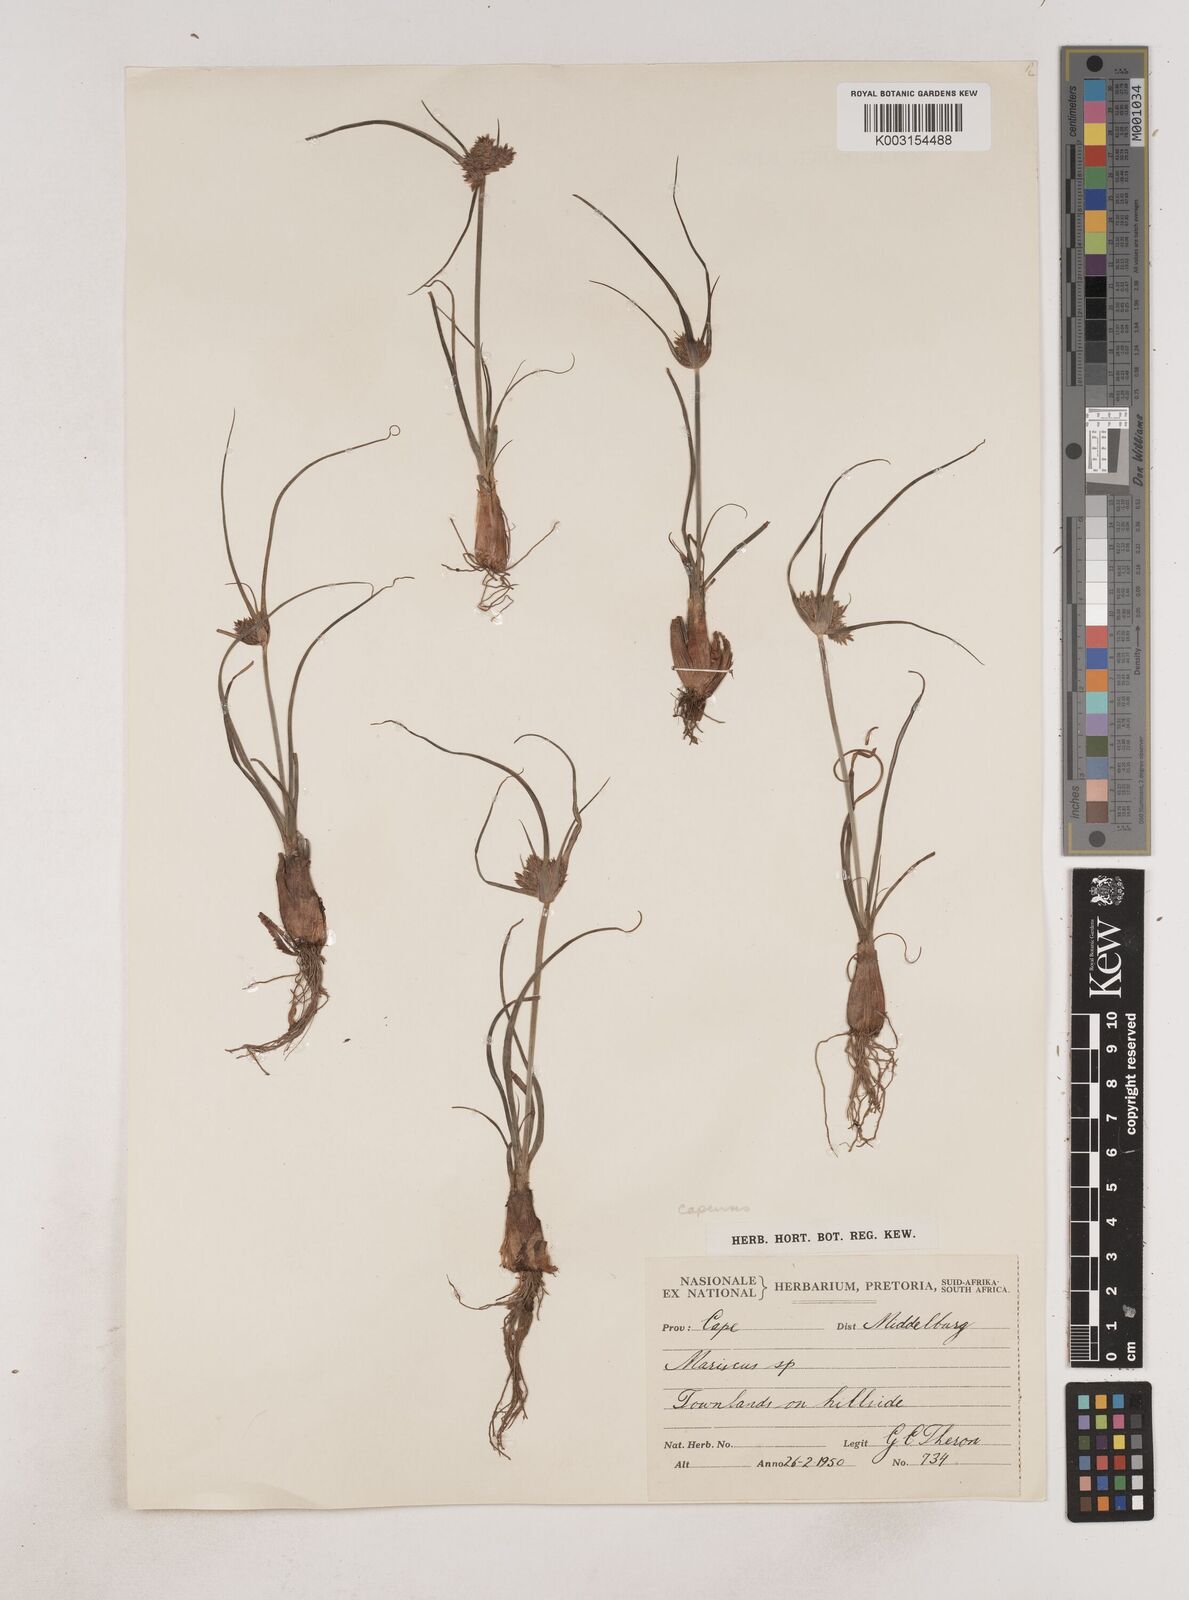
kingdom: Plantae
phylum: Tracheophyta
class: Liliopsida
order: Poales
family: Cyperaceae
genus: Cyperus
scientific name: Cyperus capensis
